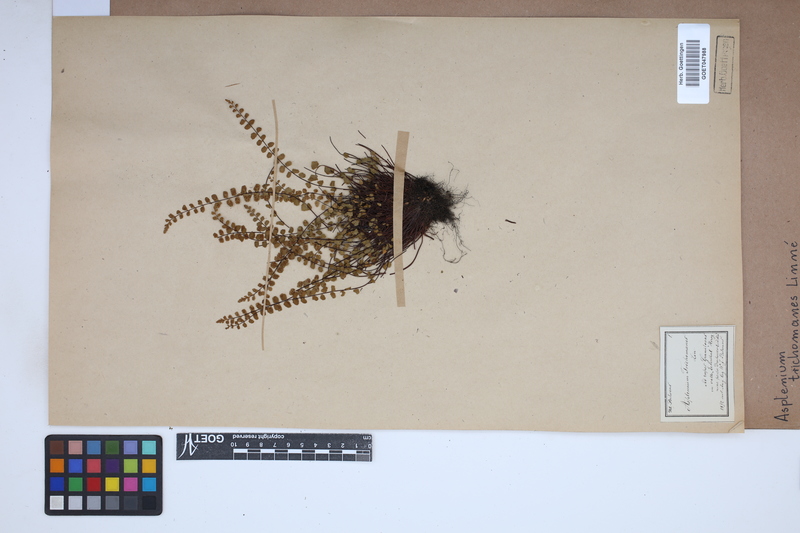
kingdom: Plantae
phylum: Tracheophyta
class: Polypodiopsida
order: Polypodiales
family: Aspleniaceae
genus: Asplenium
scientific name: Asplenium trichomanes
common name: Maidenhair spleenwort
